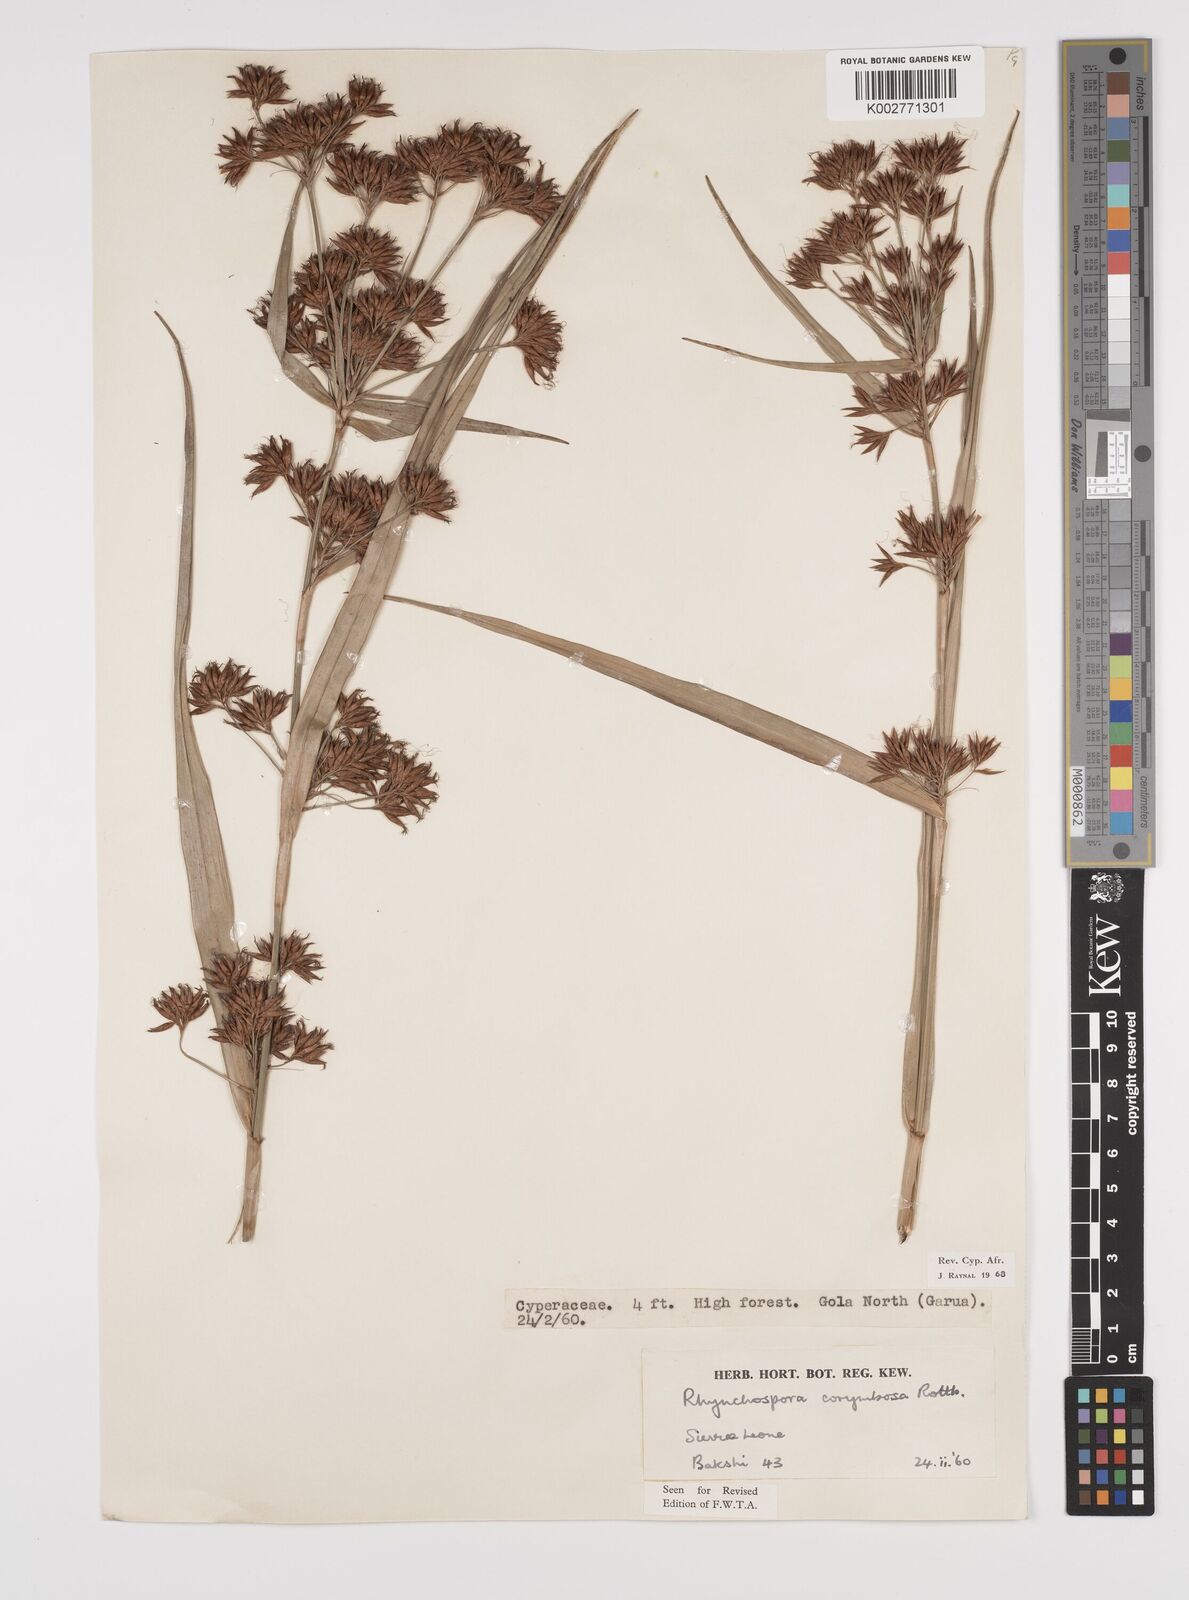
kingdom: Plantae
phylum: Tracheophyta
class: Liliopsida
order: Poales
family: Cyperaceae
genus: Rhynchospora
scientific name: Rhynchospora corymbosa
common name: Golden beak sedge
